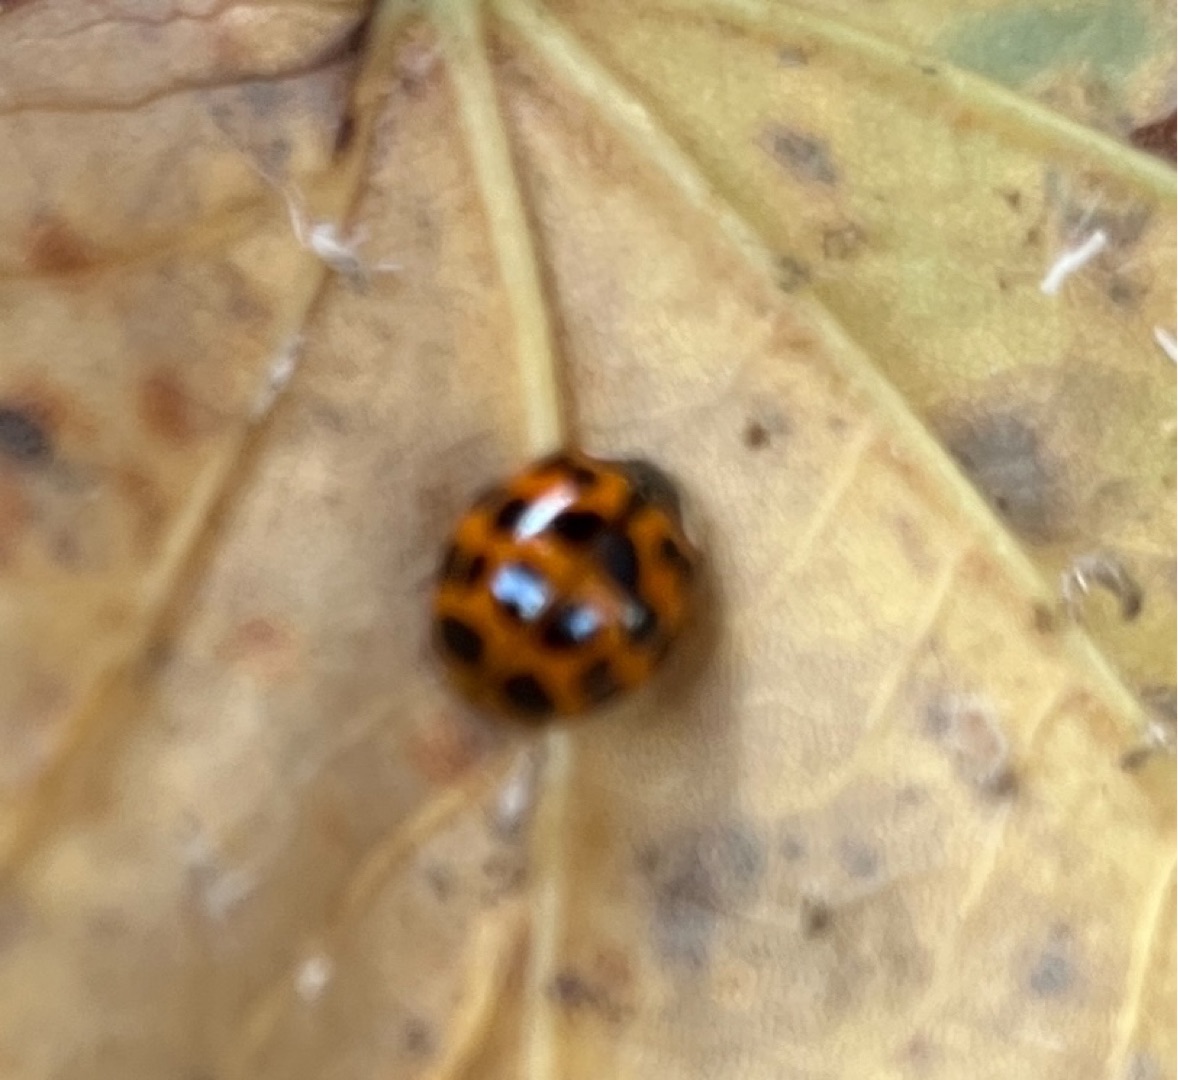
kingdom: Animalia
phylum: Arthropoda
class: Insecta
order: Coleoptera
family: Coccinellidae
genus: Harmonia
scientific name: Harmonia axyridis
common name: Harlekinmariehøne
